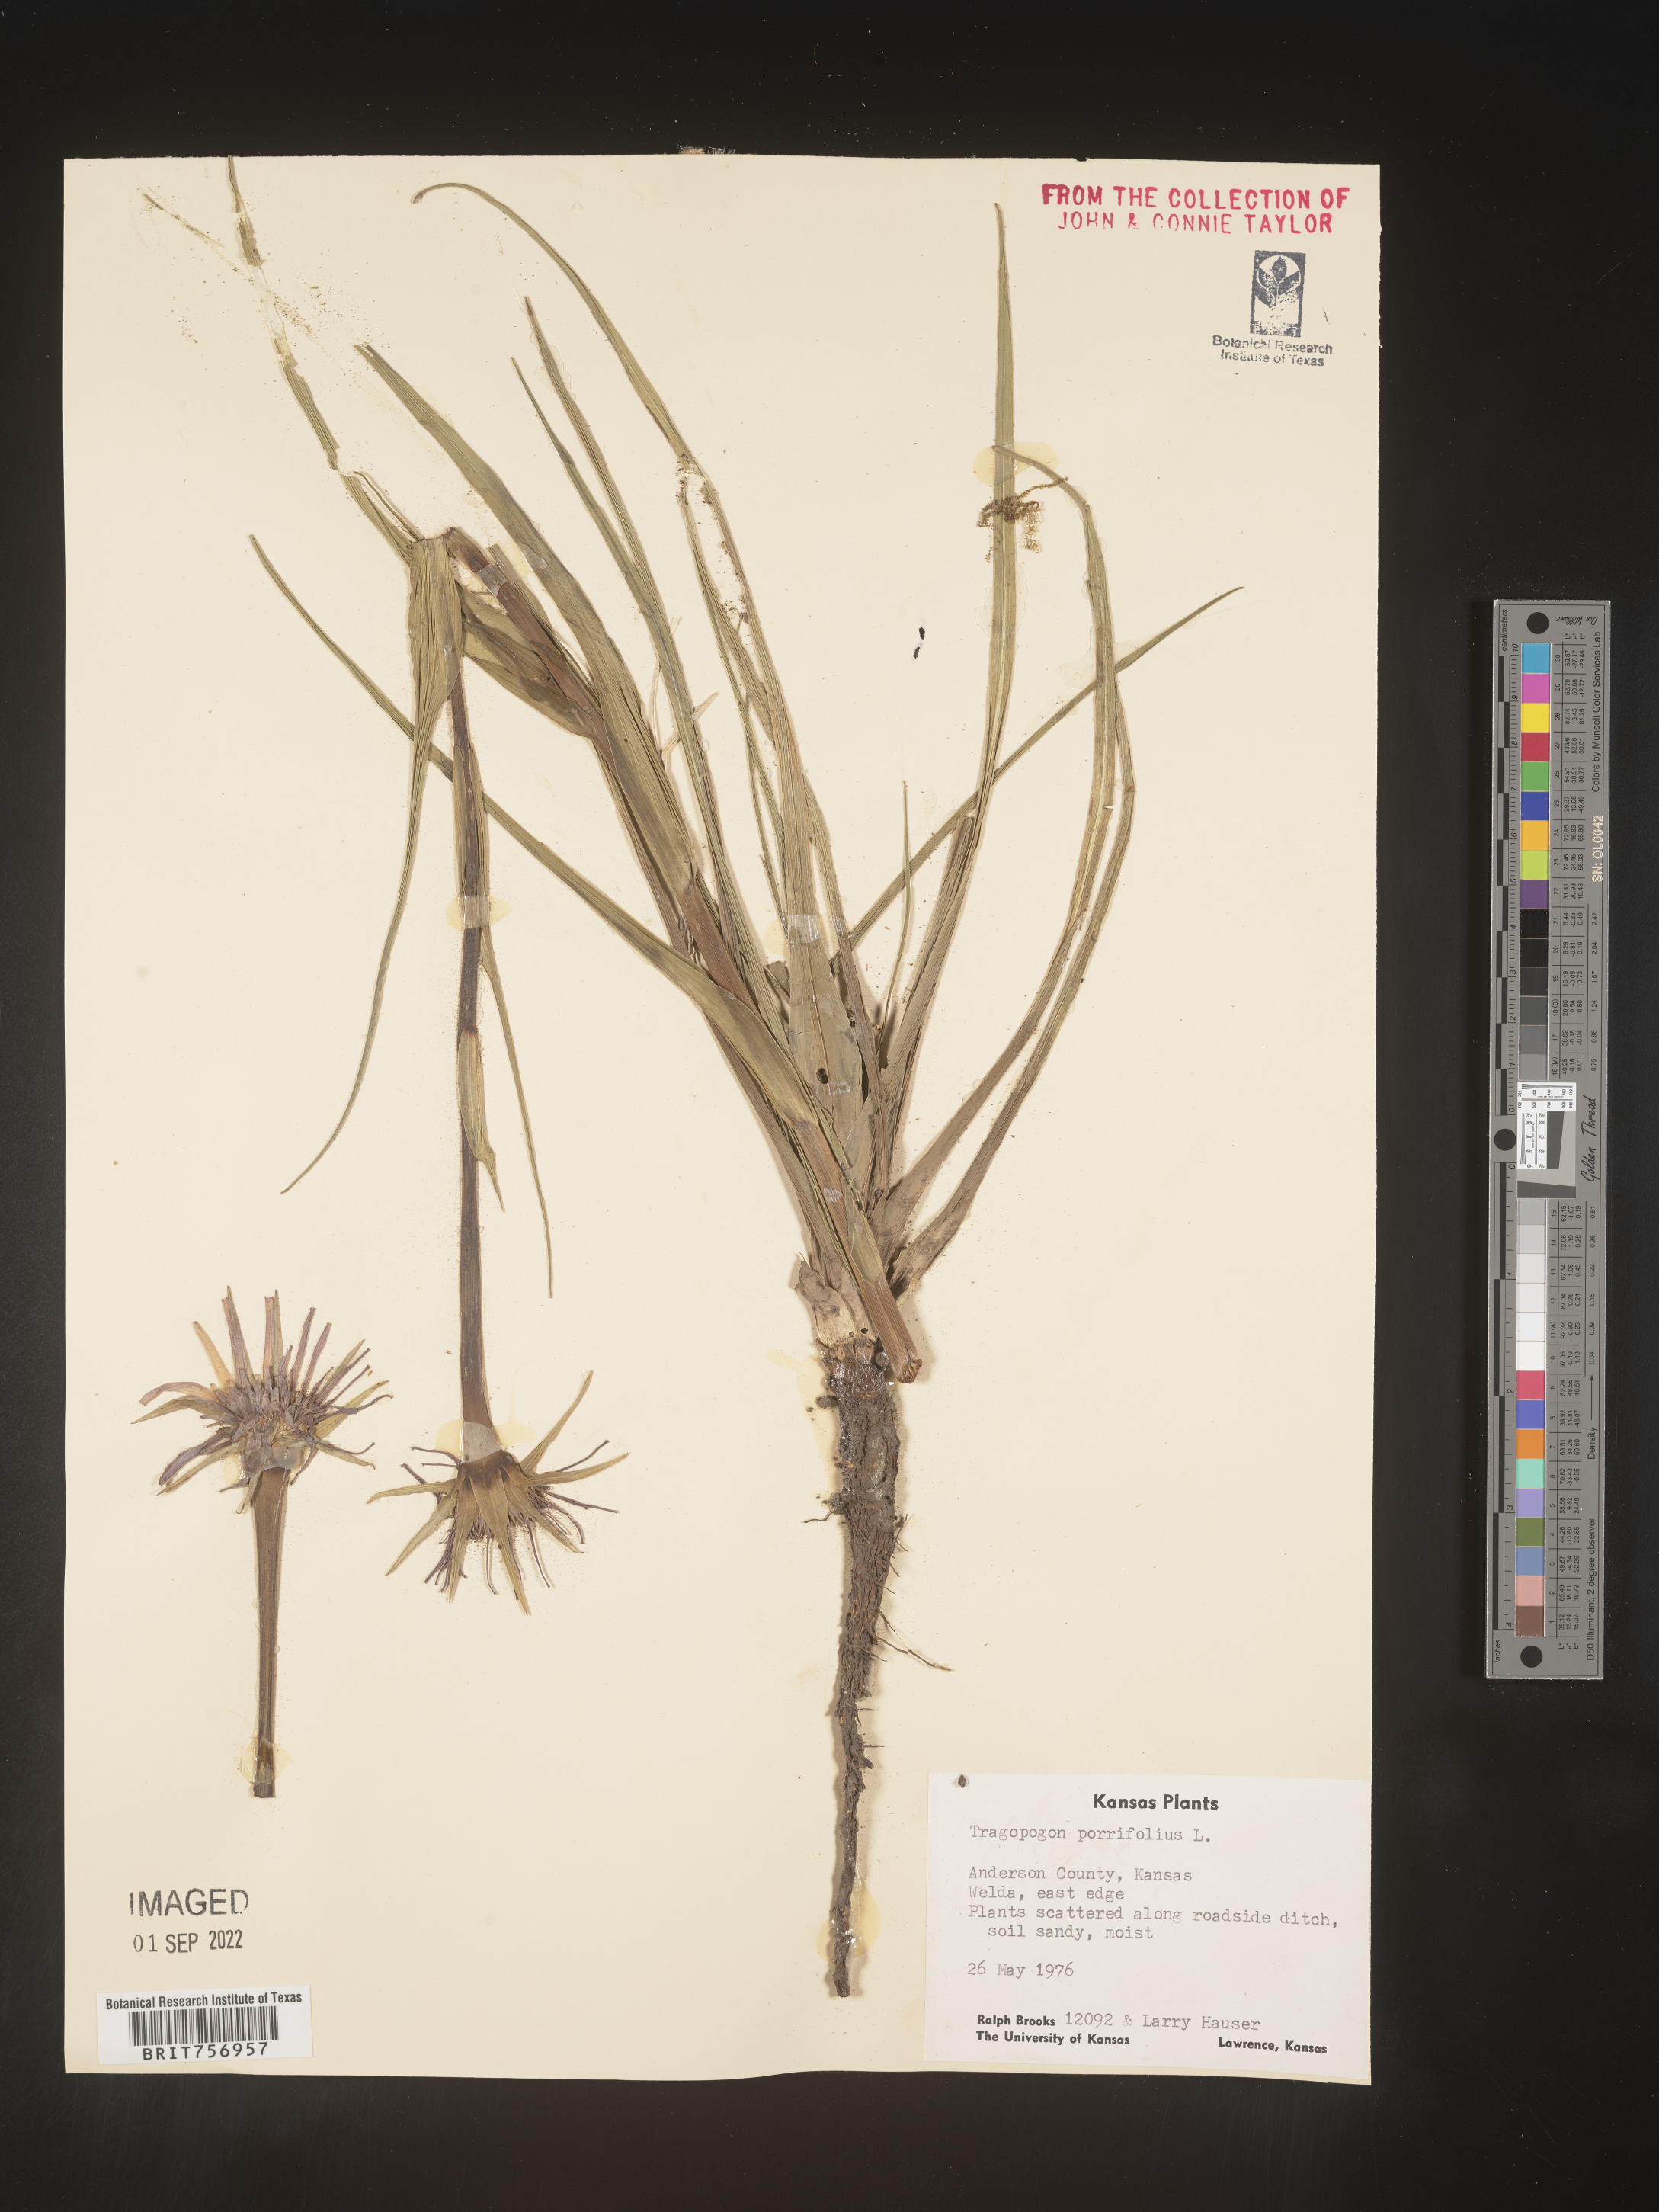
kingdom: Plantae
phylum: Tracheophyta
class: Magnoliopsida
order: Asterales
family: Asteraceae
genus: Tragopogon
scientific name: Tragopogon
